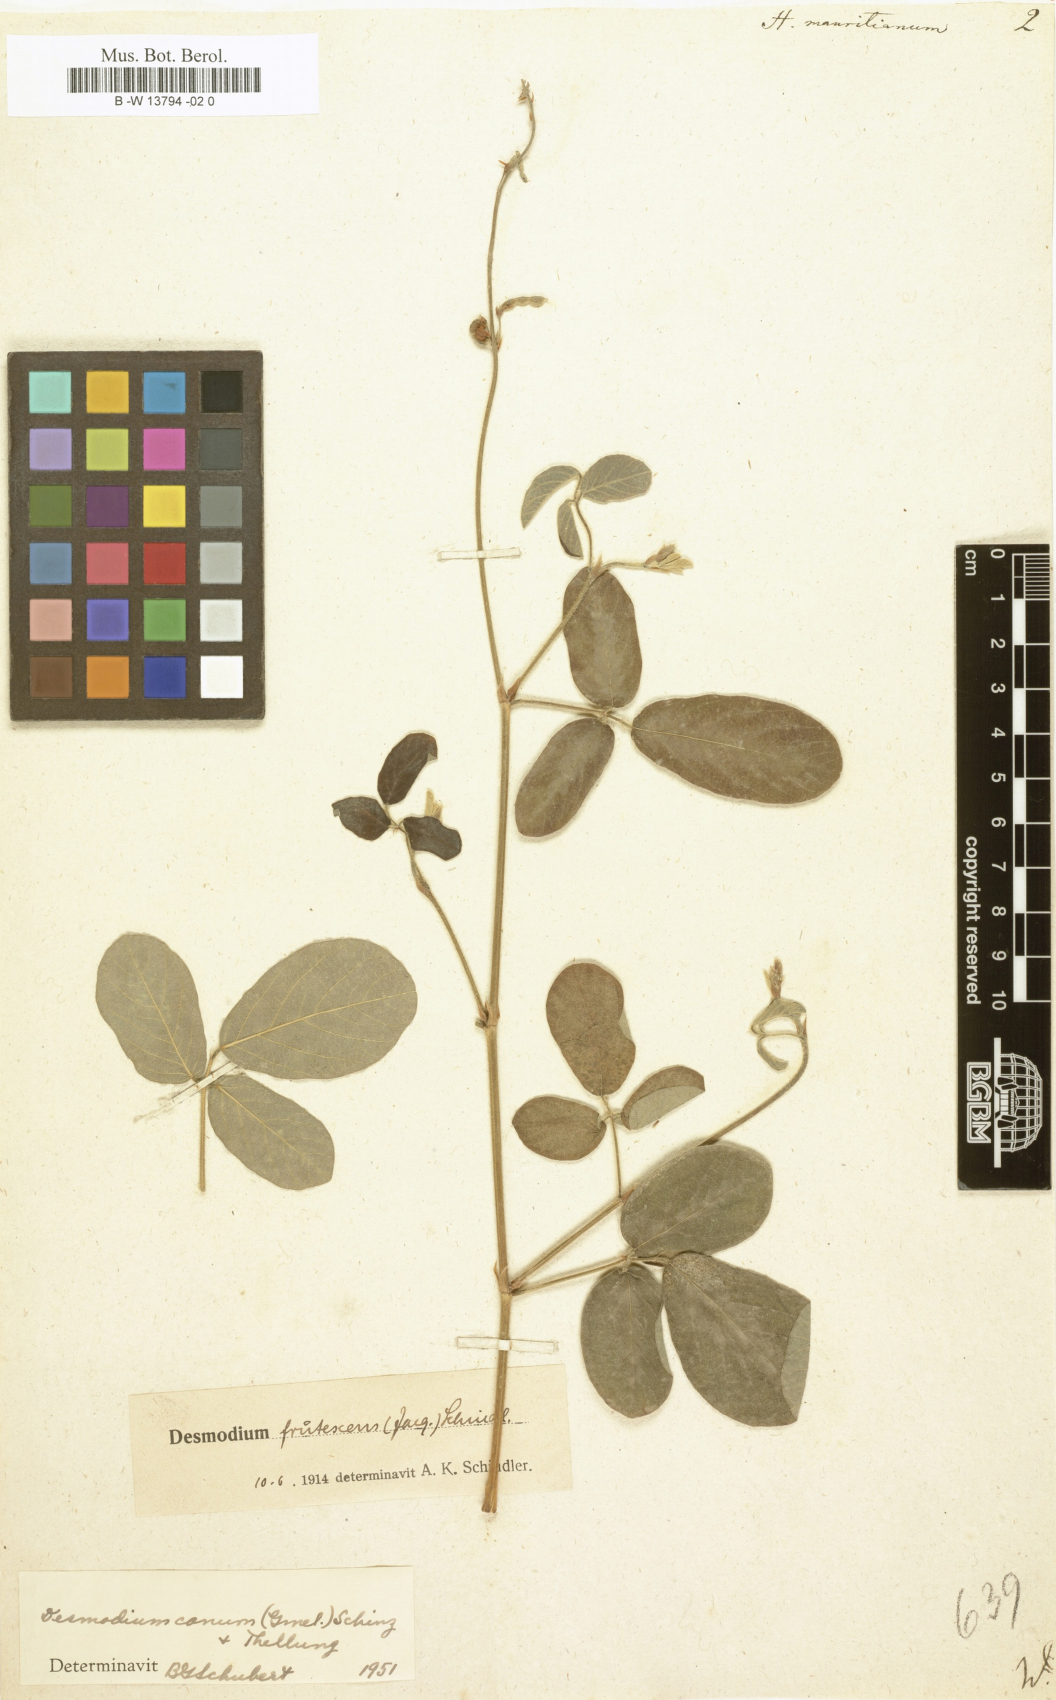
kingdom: Plantae
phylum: Tracheophyta
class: Magnoliopsida
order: Fabales
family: Fabaceae
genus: Desmodium
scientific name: Desmodium incanum
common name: Tickclover
